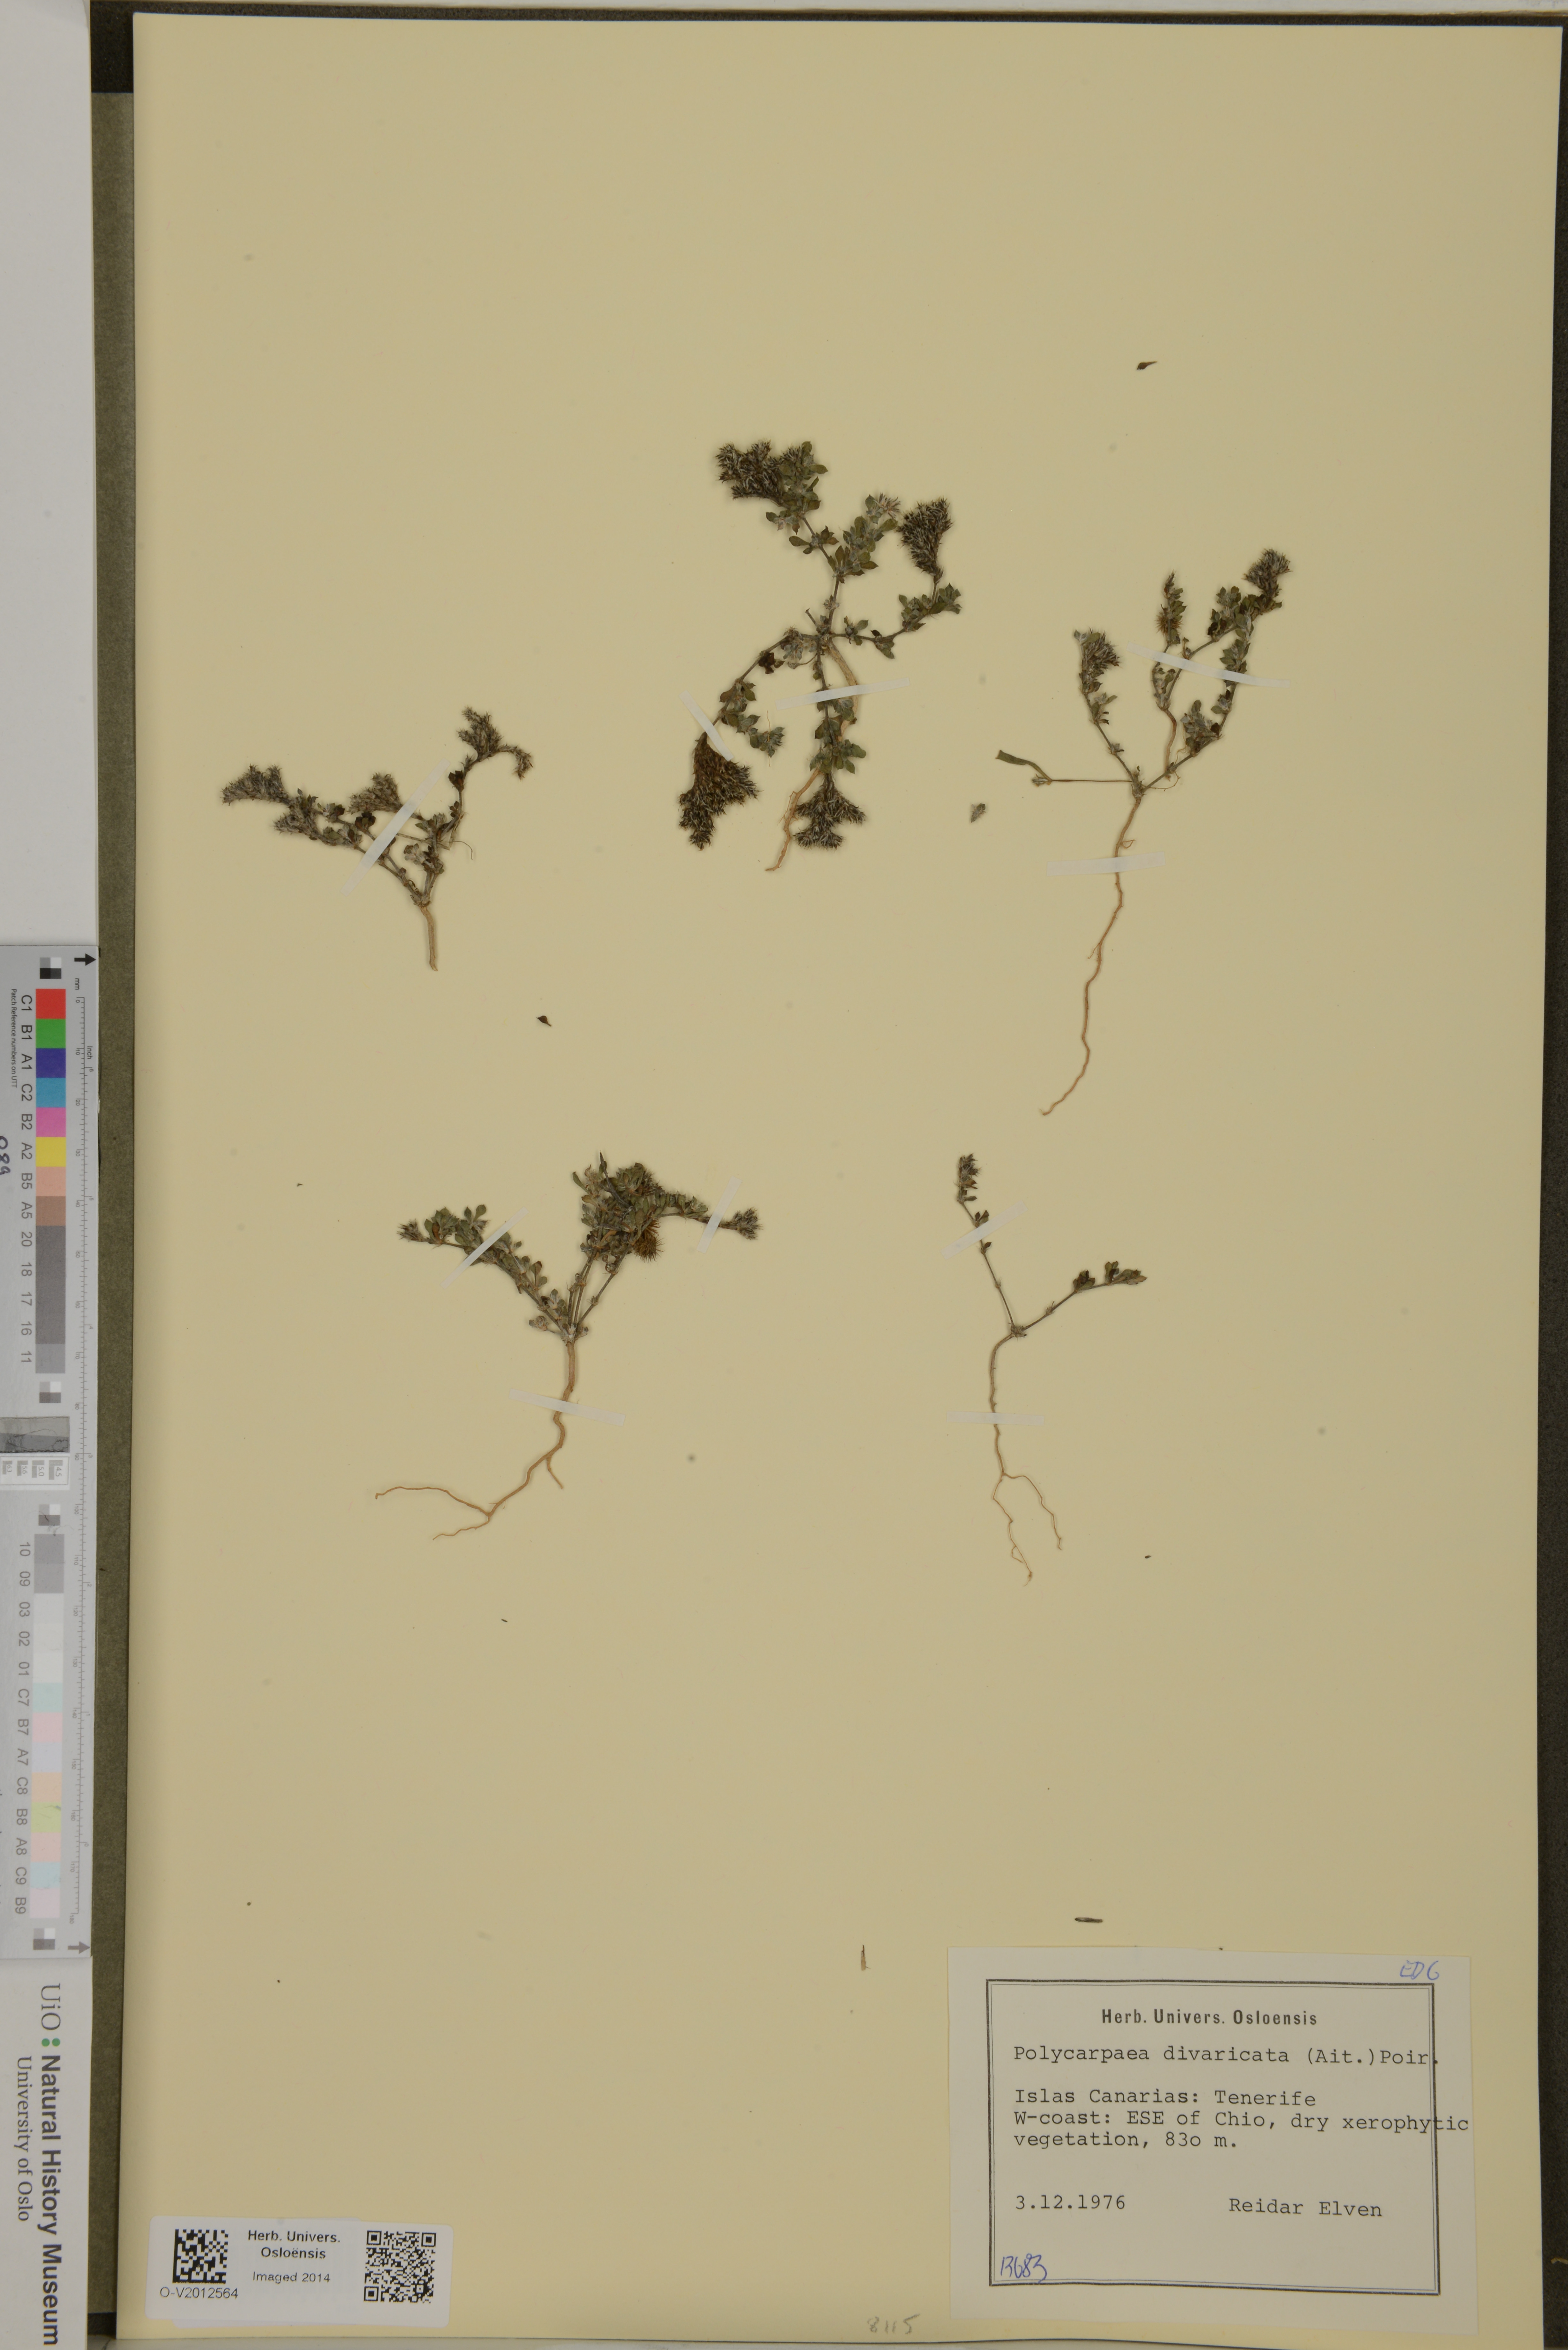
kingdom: Plantae
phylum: Tracheophyta
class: Magnoliopsida
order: Caryophyllales
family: Caryophyllaceae
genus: Polycarpaea
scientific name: Polycarpaea divaricata
